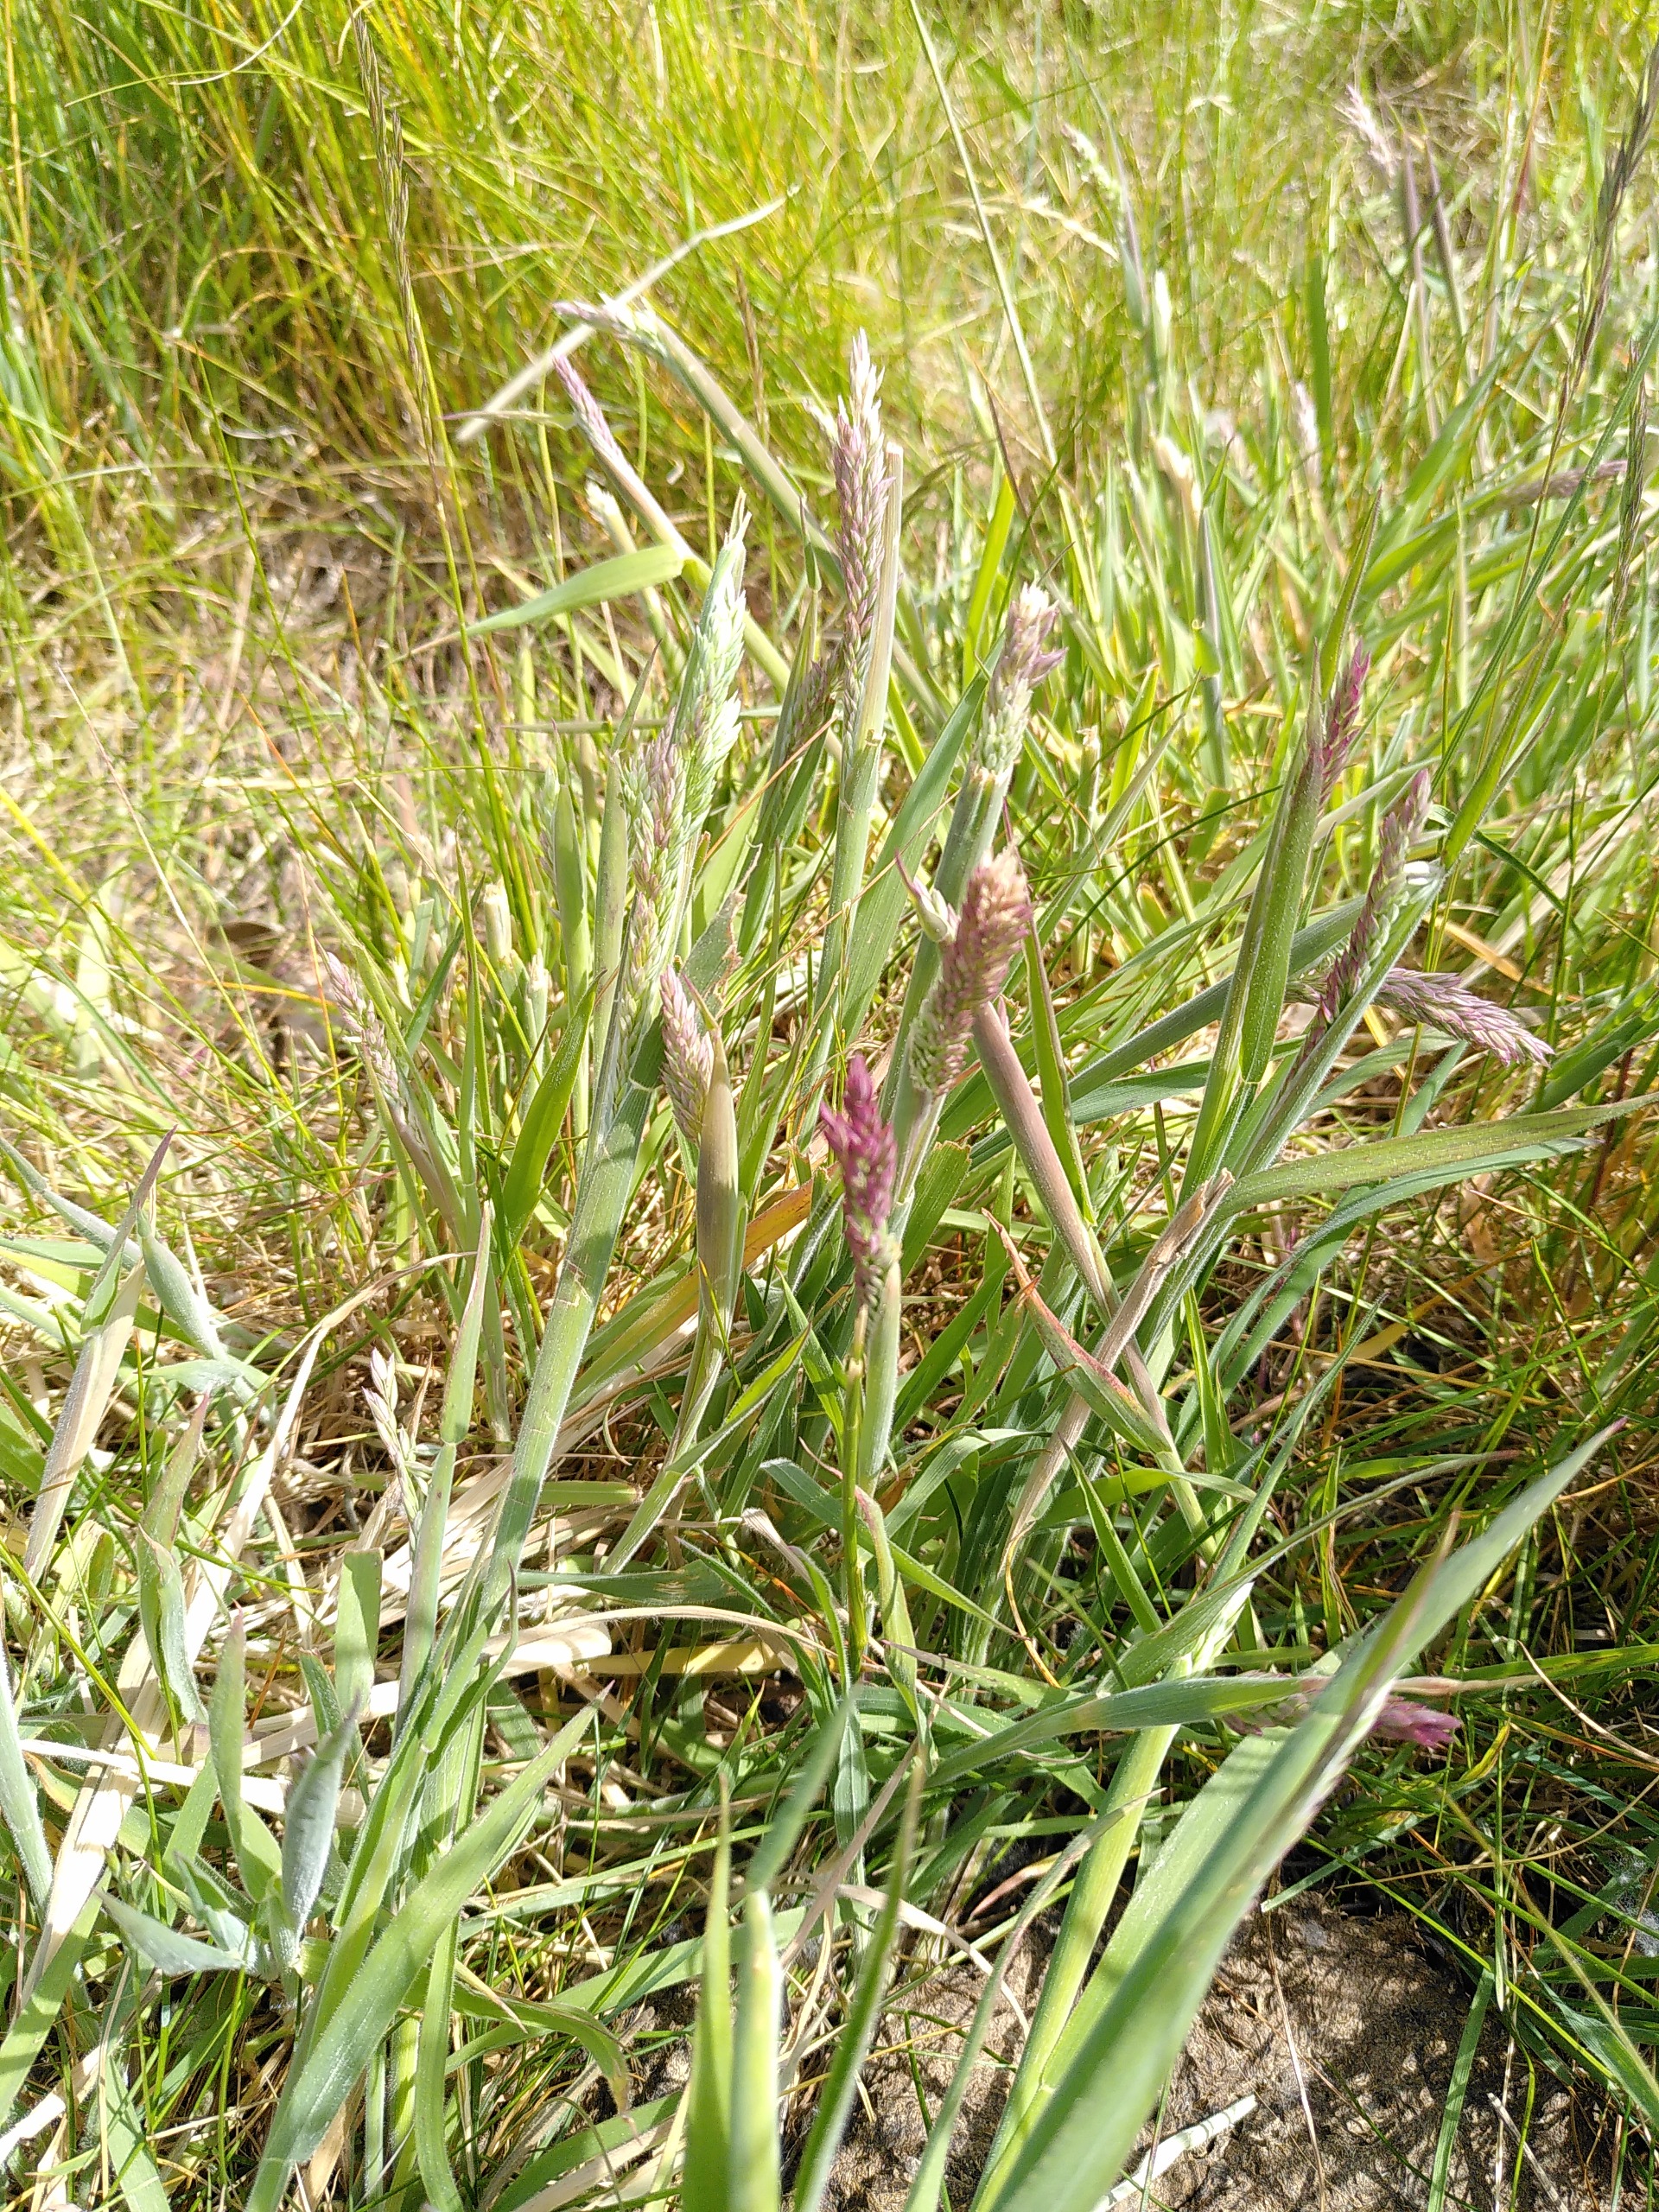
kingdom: Plantae
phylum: Tracheophyta
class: Liliopsida
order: Poales
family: Poaceae
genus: Holcus
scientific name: Holcus lanatus
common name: Fløjlsgræs
